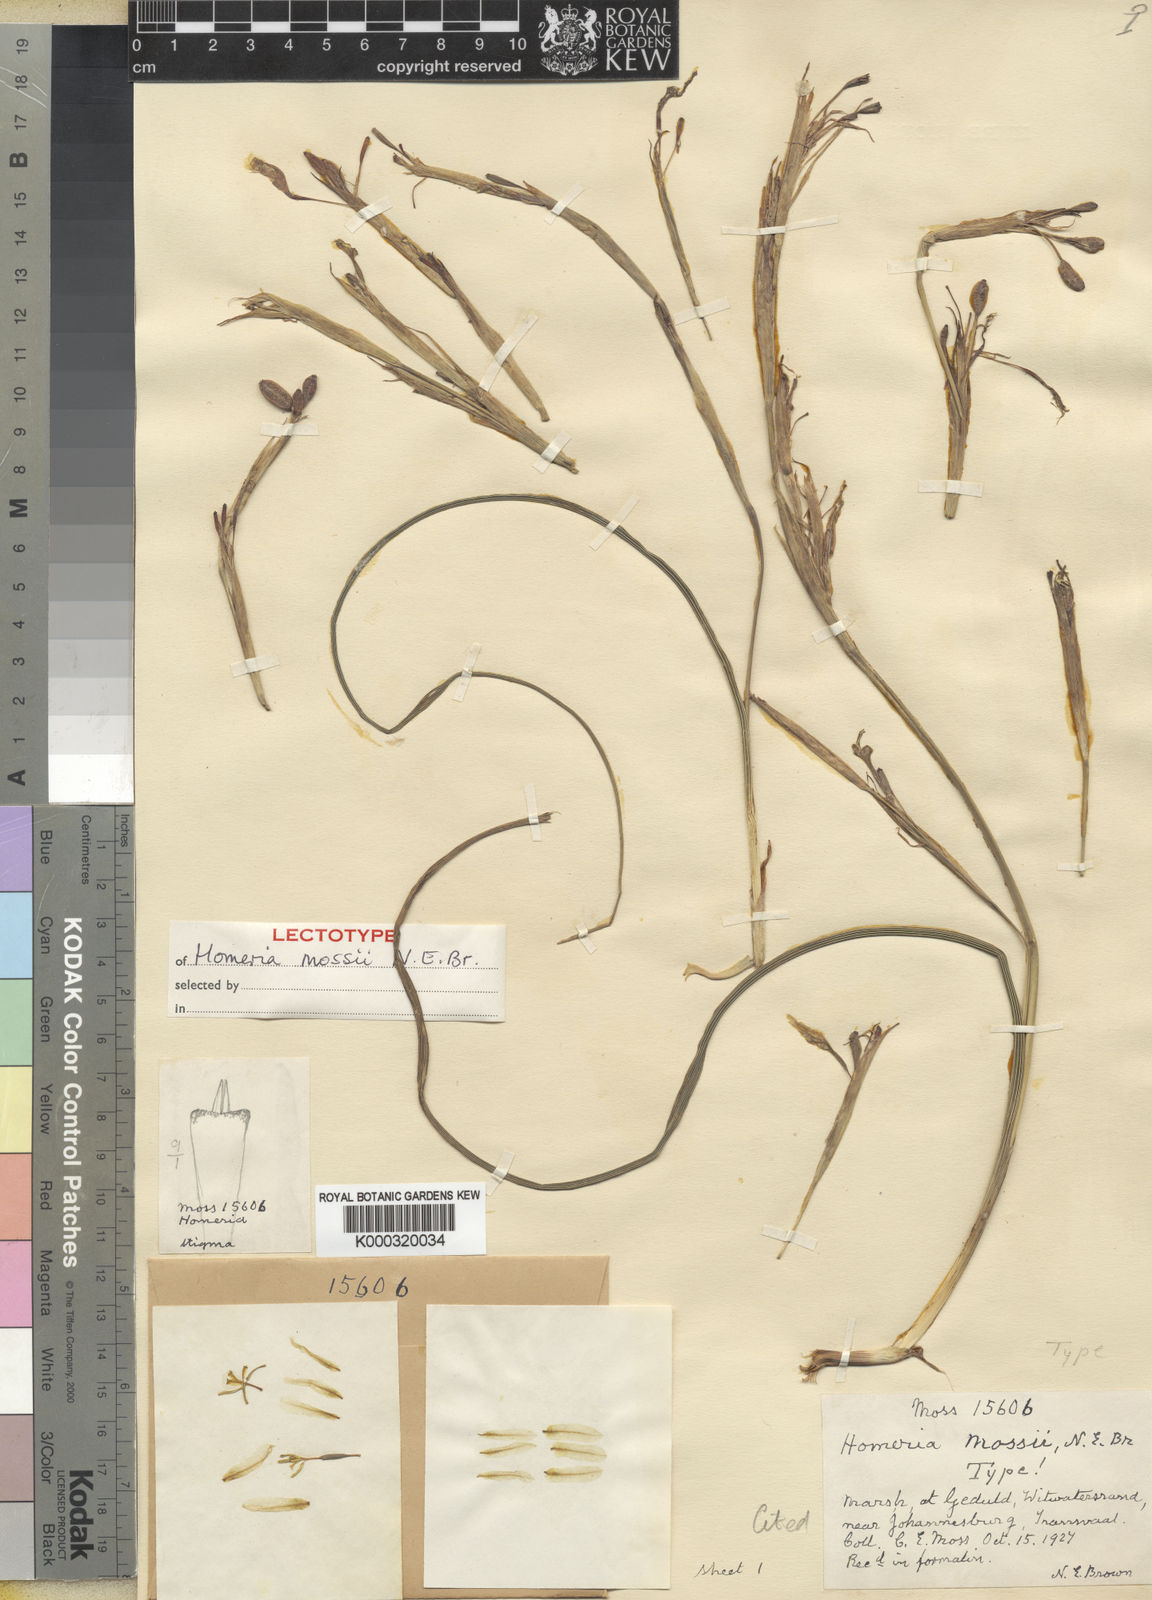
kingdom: Plantae
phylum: Tracheophyta
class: Liliopsida
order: Asparagales
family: Iridaceae
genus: Moraea
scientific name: Moraea pallida
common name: Yellow tulp
